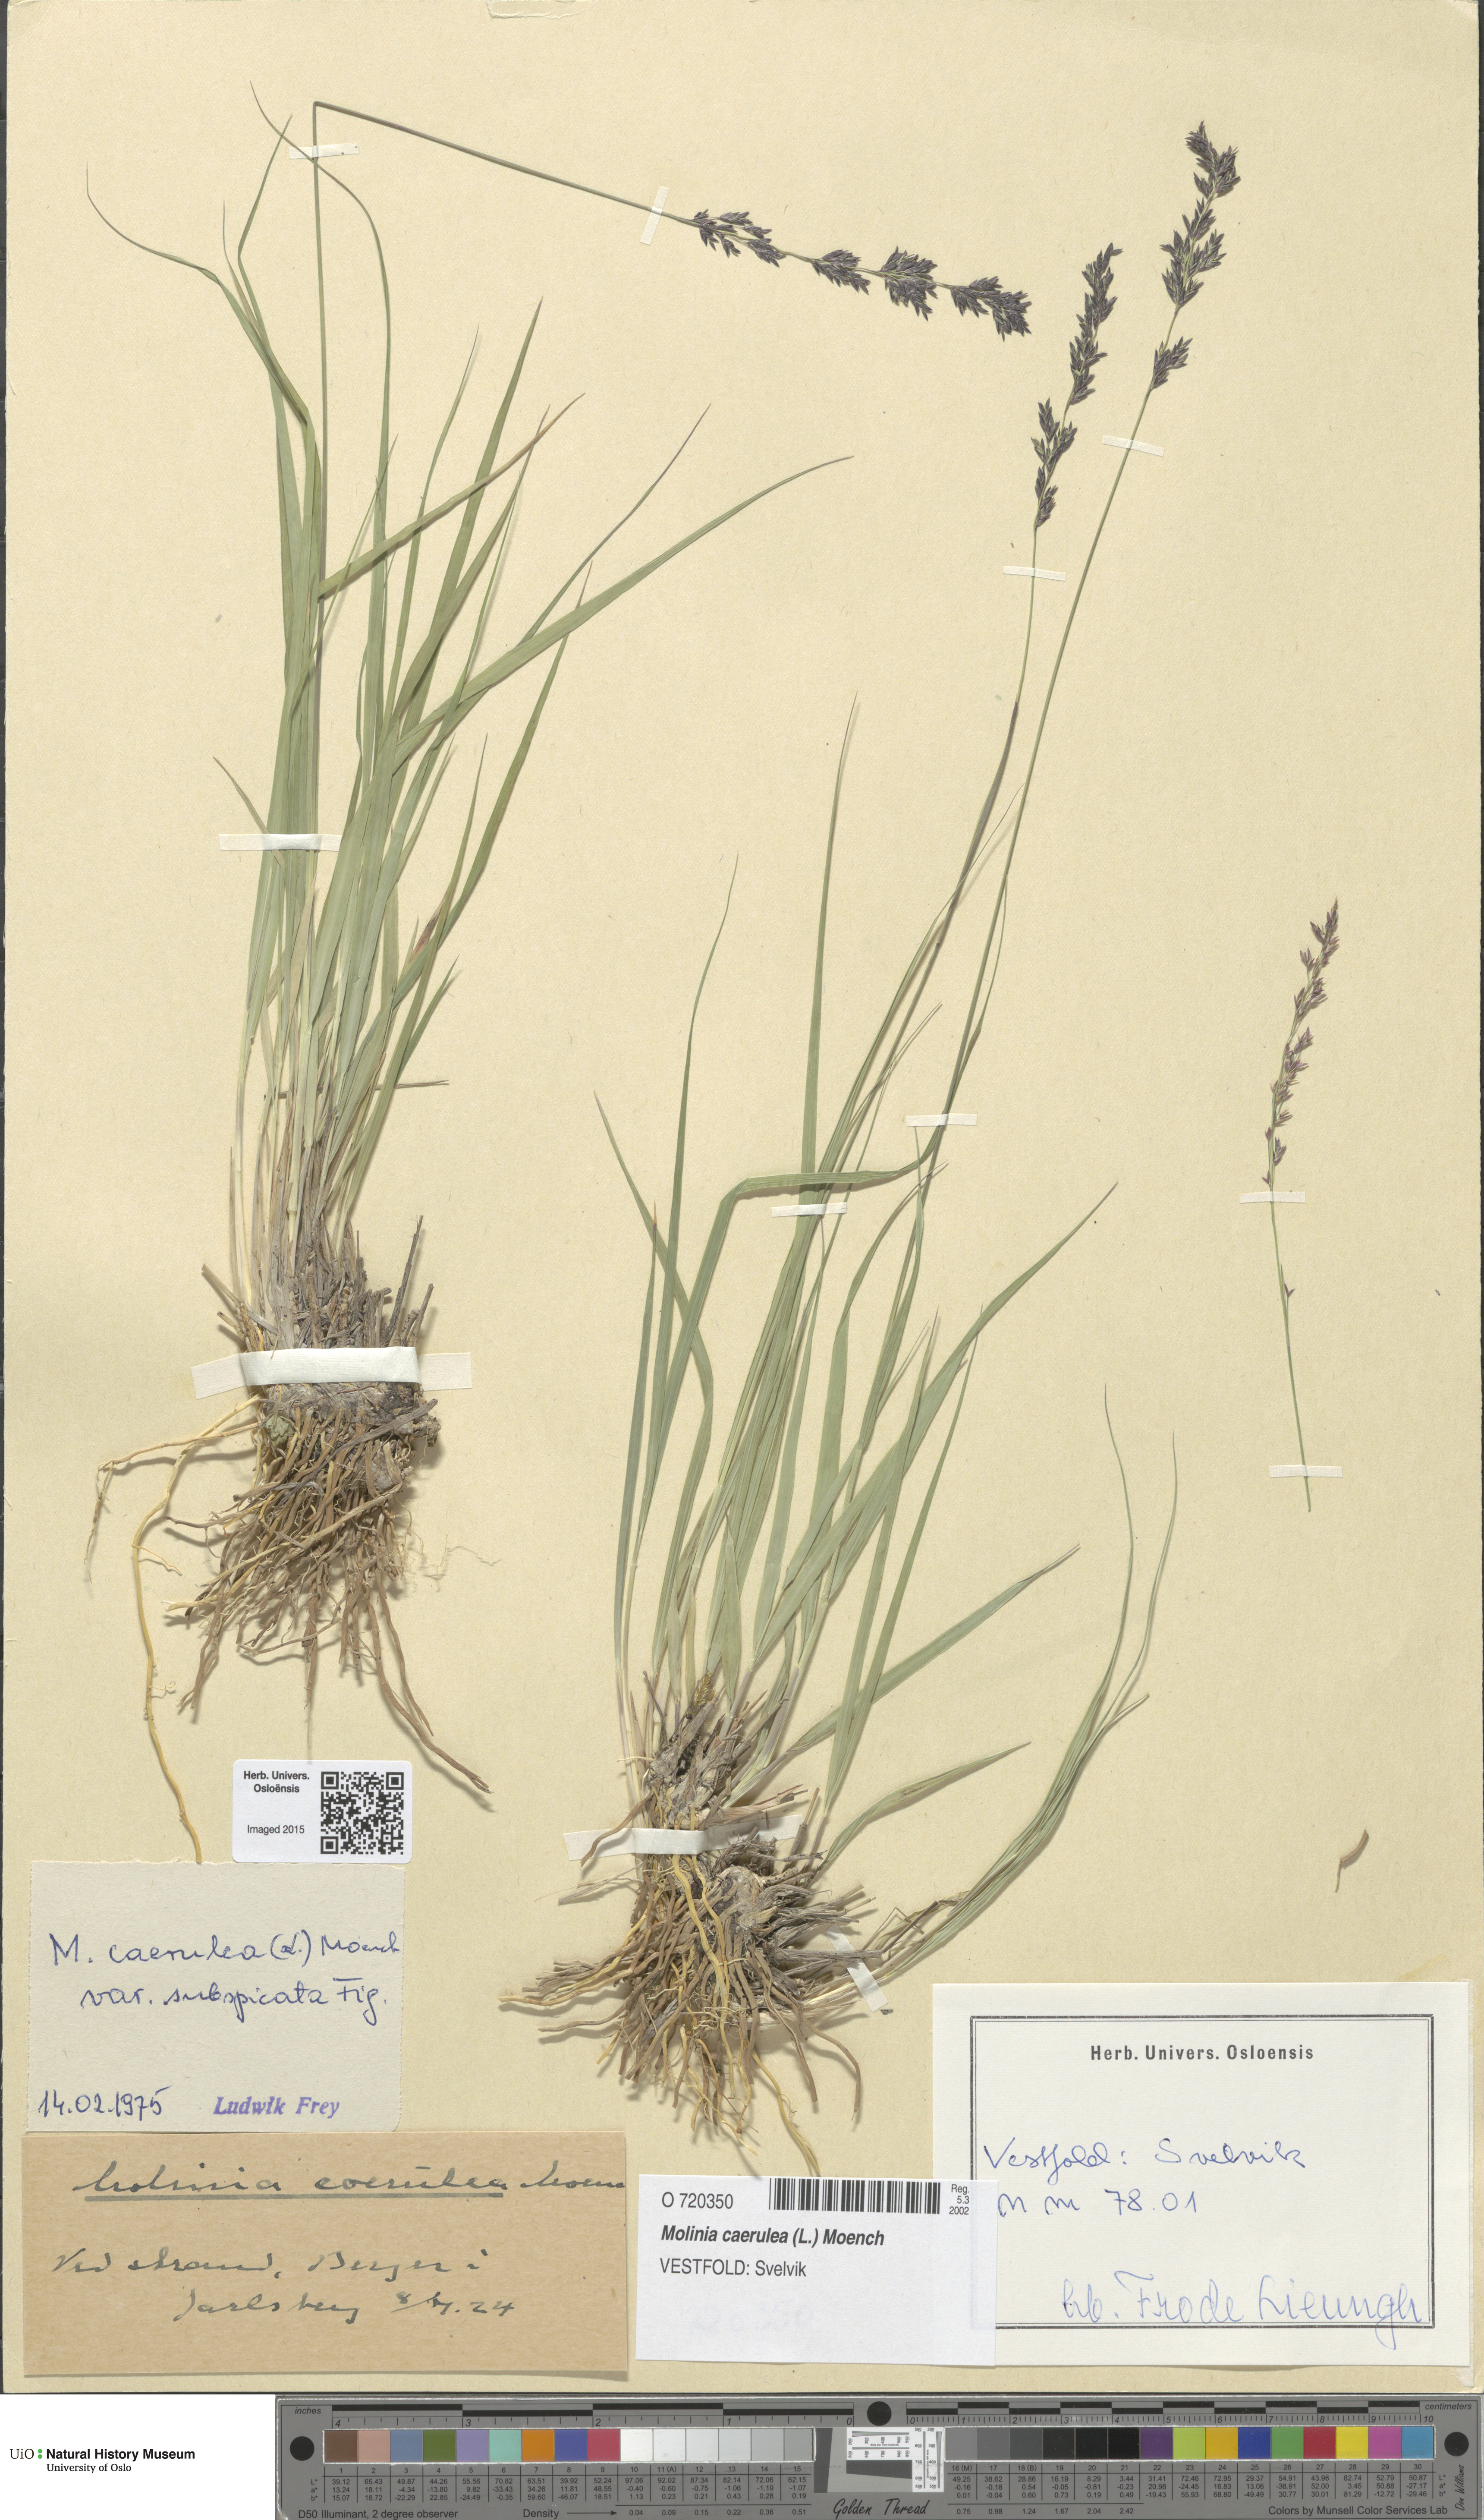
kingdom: Plantae
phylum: Tracheophyta
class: Liliopsida
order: Poales
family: Poaceae
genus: Molinia
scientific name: Molinia caerulea
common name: Purple moor-grass
